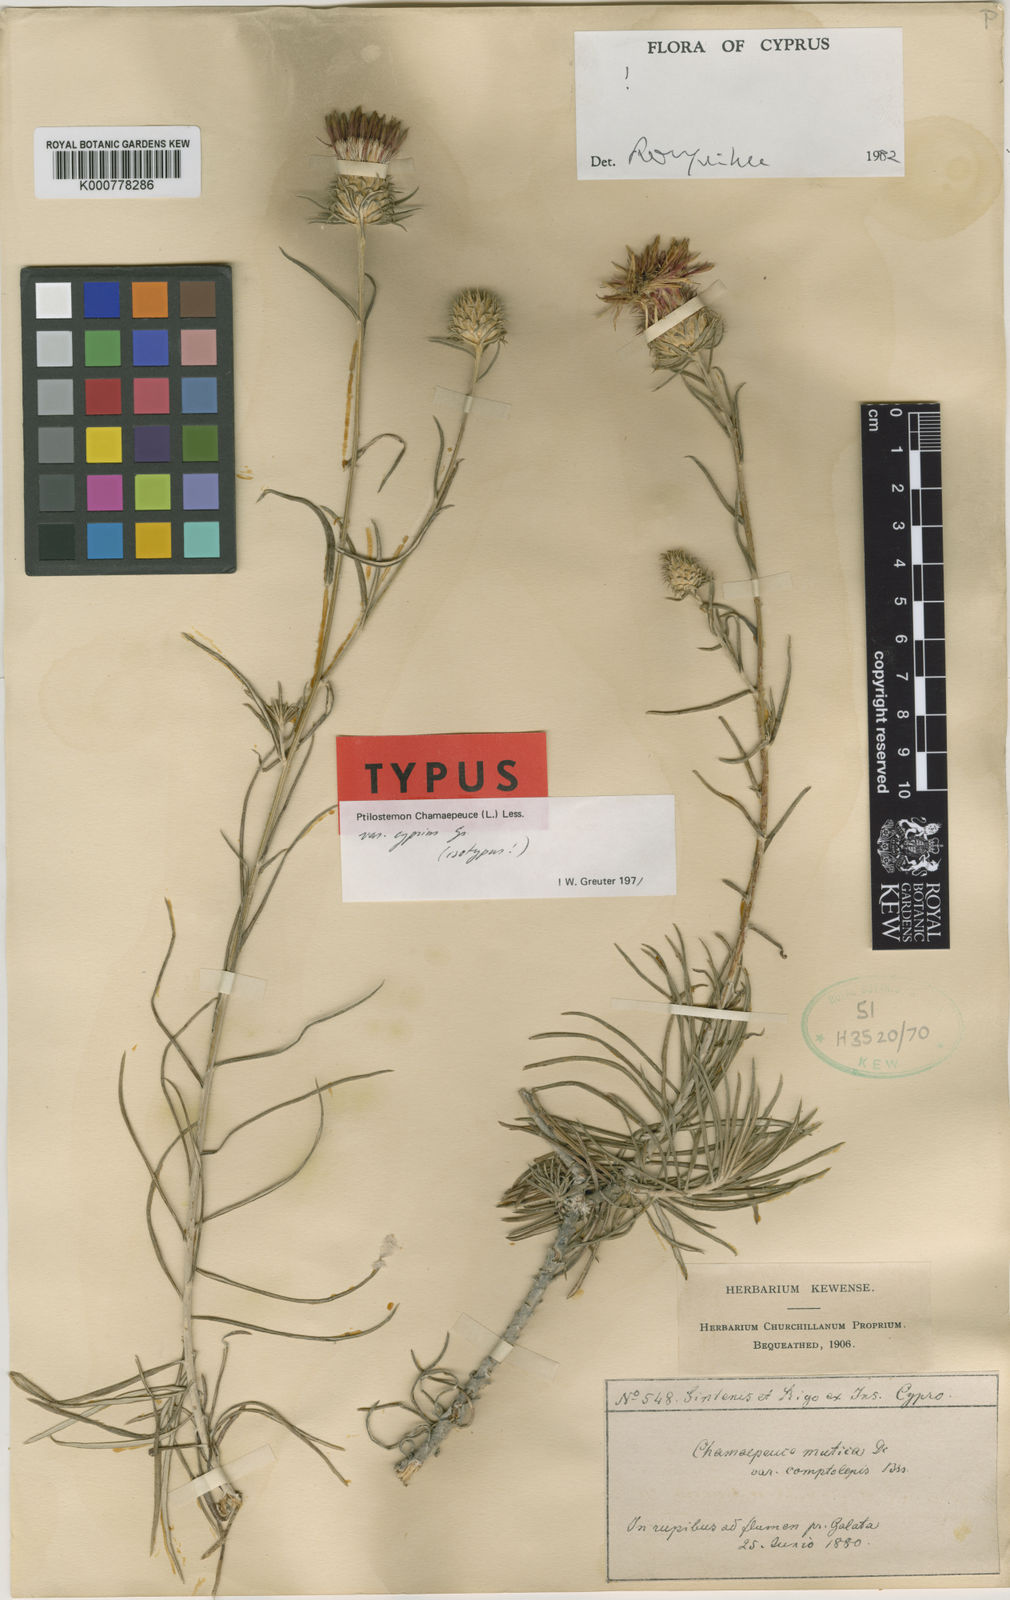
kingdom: Plantae
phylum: Tracheophyta
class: Magnoliopsida
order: Asterales
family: Asteraceae
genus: Ptilostemon
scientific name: Ptilostemon chamaepeuce
